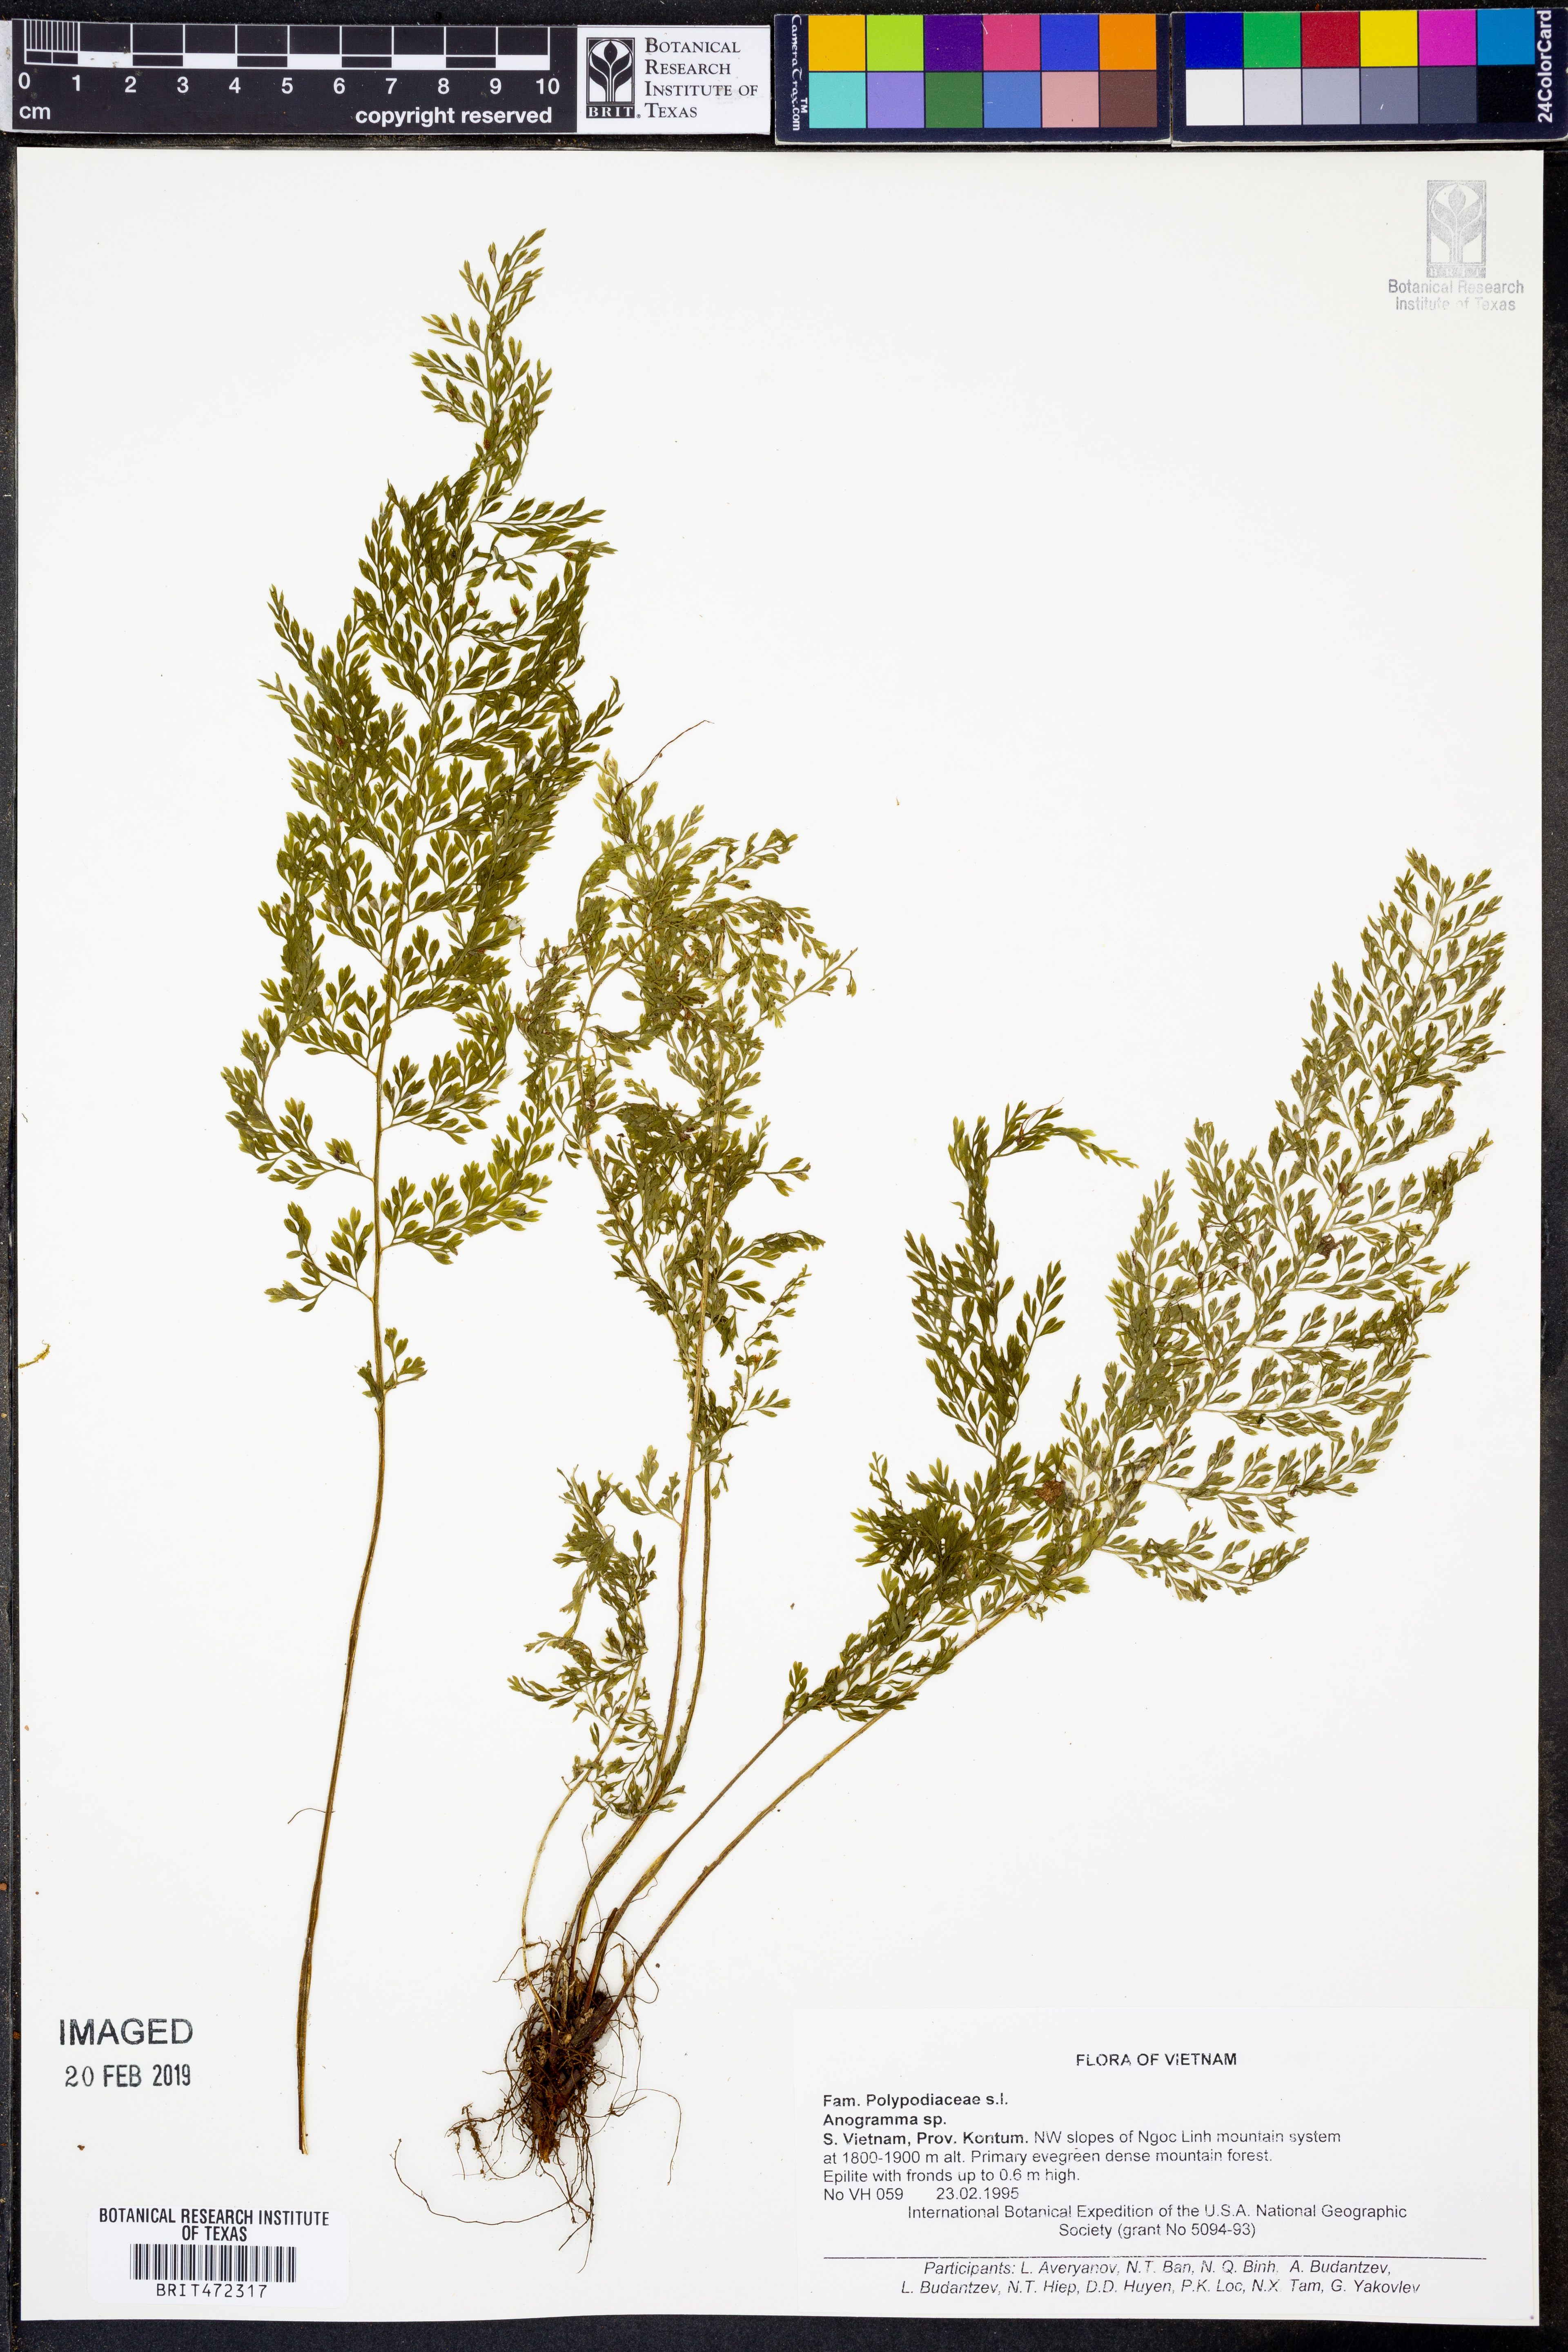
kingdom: Plantae
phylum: Tracheophyta
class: Polypodiopsida
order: Polypodiales
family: Pteridaceae
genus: Anogramma
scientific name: Anogramma
